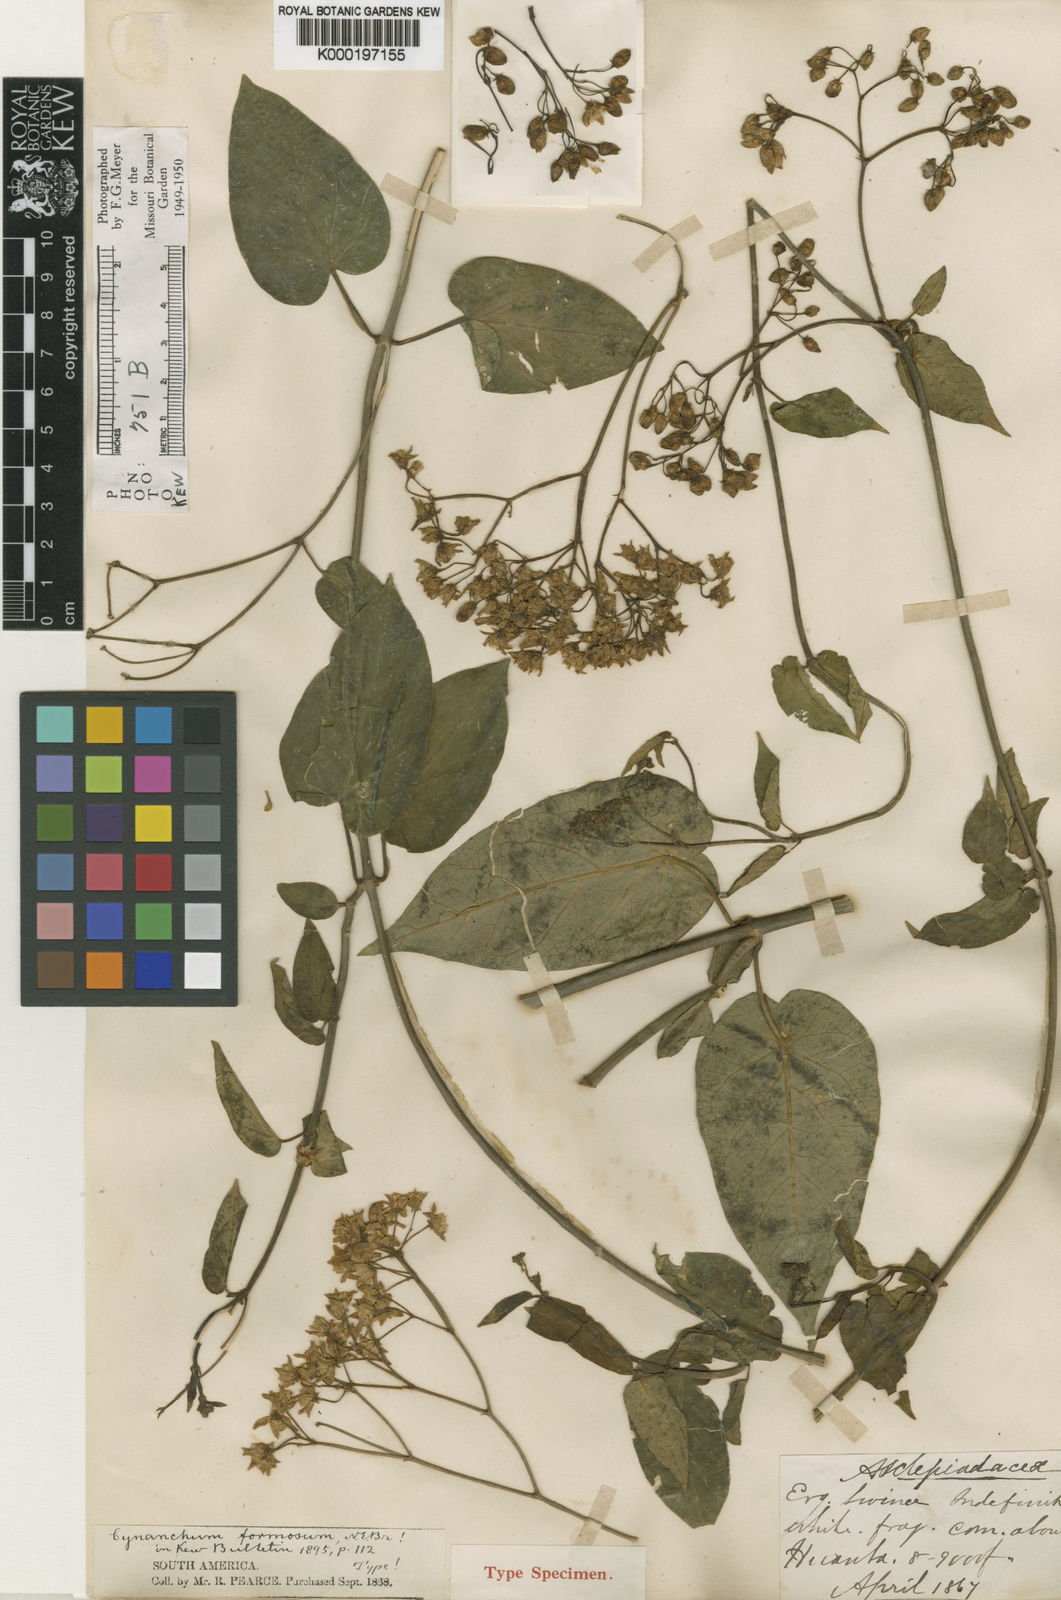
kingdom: Plantae
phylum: Tracheophyta
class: Magnoliopsida
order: Gentianales
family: Apocynaceae
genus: Jobinia
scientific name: Jobinia formosa
